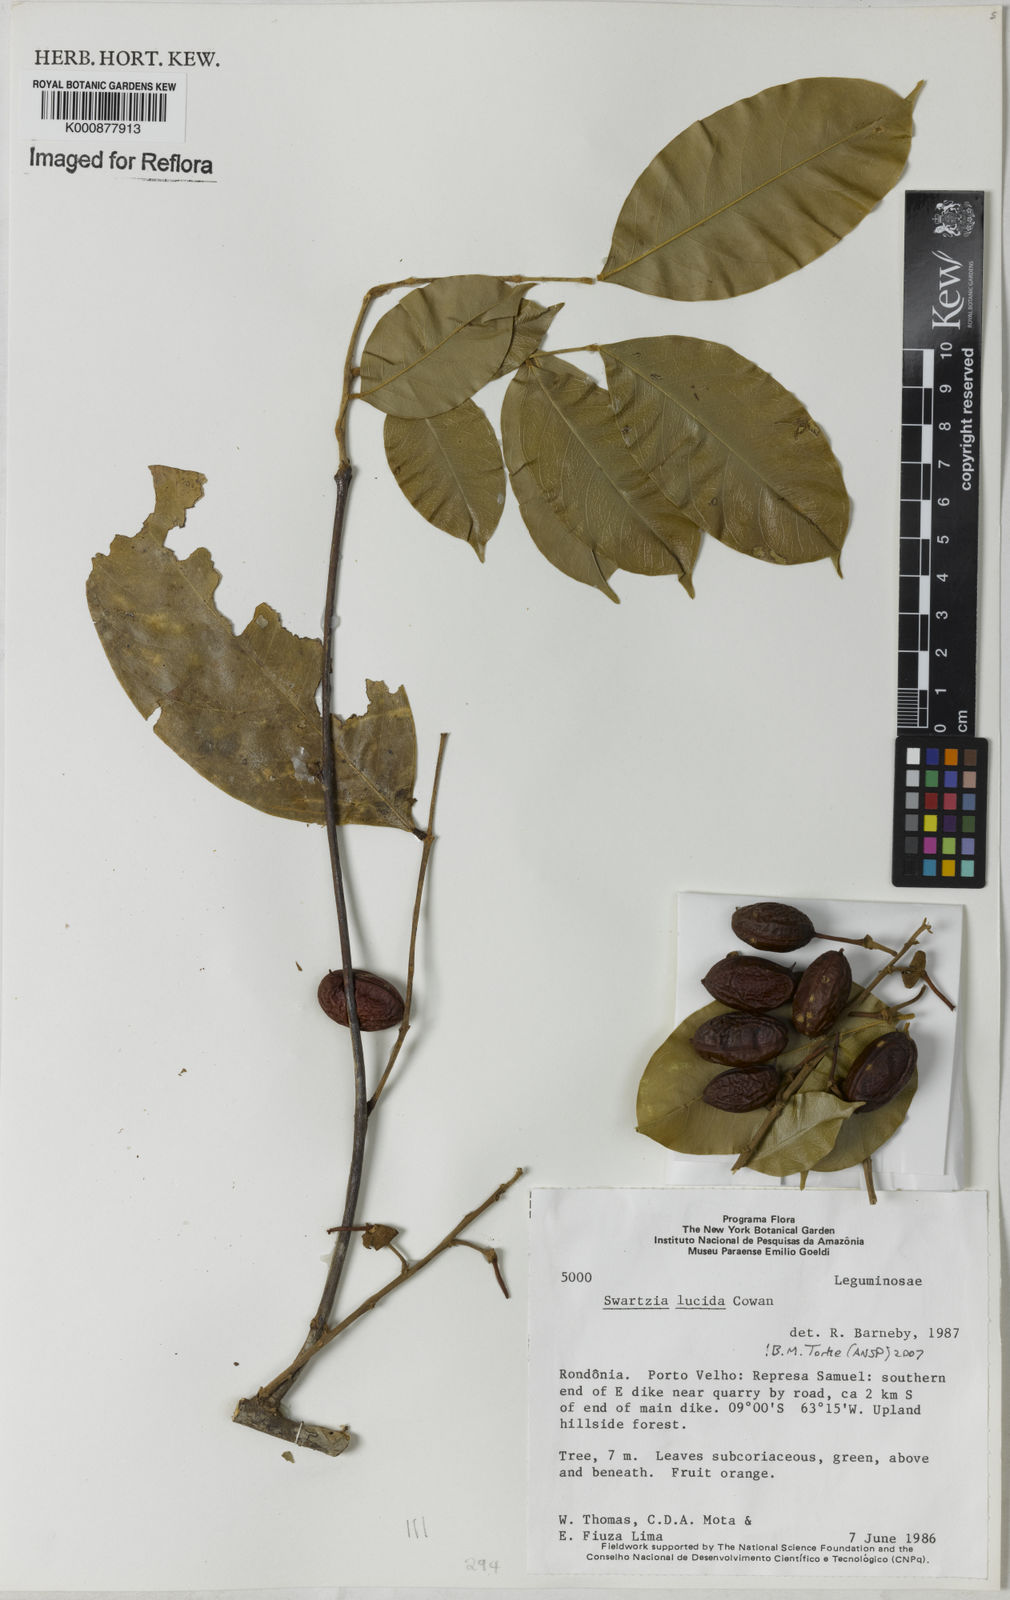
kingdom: Plantae
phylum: Tracheophyta
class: Magnoliopsida
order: Fabales
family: Fabaceae
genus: Swartzia
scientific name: Swartzia lucida
